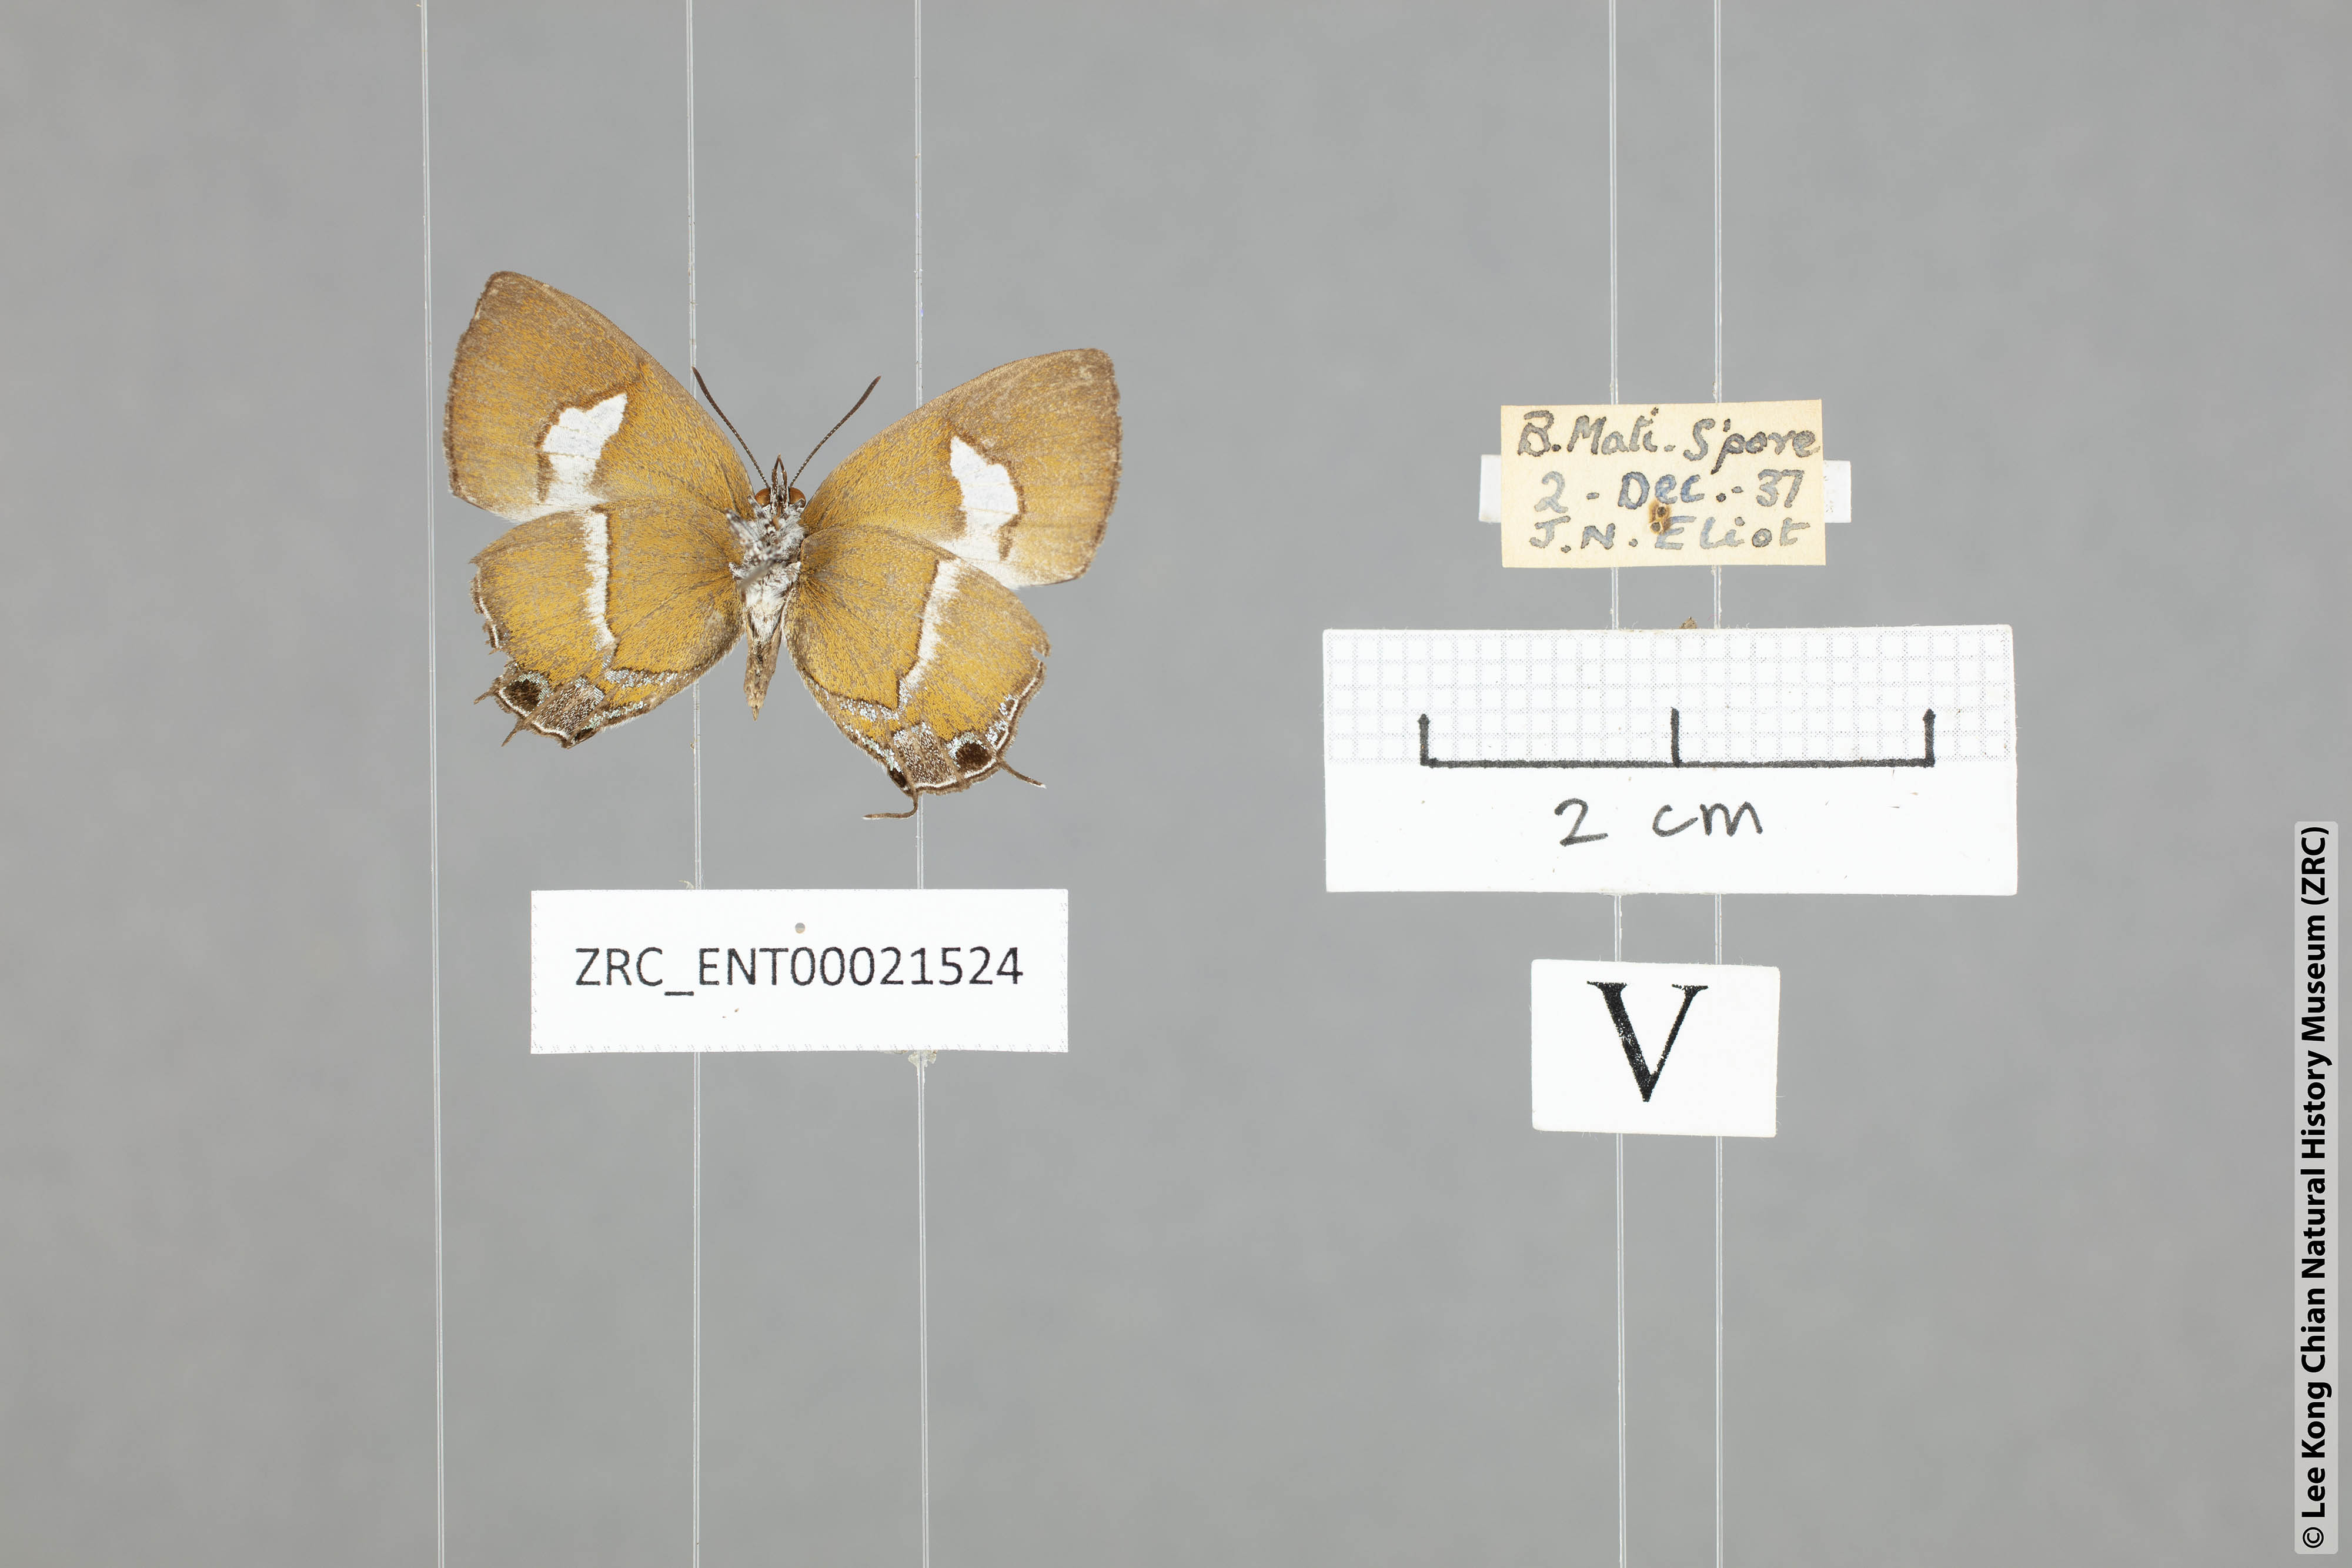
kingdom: Animalia
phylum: Arthropoda
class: Insecta
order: Lepidoptera
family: Lycaenidae
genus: Horaga
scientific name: Horaga onyx
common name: Common onyx
